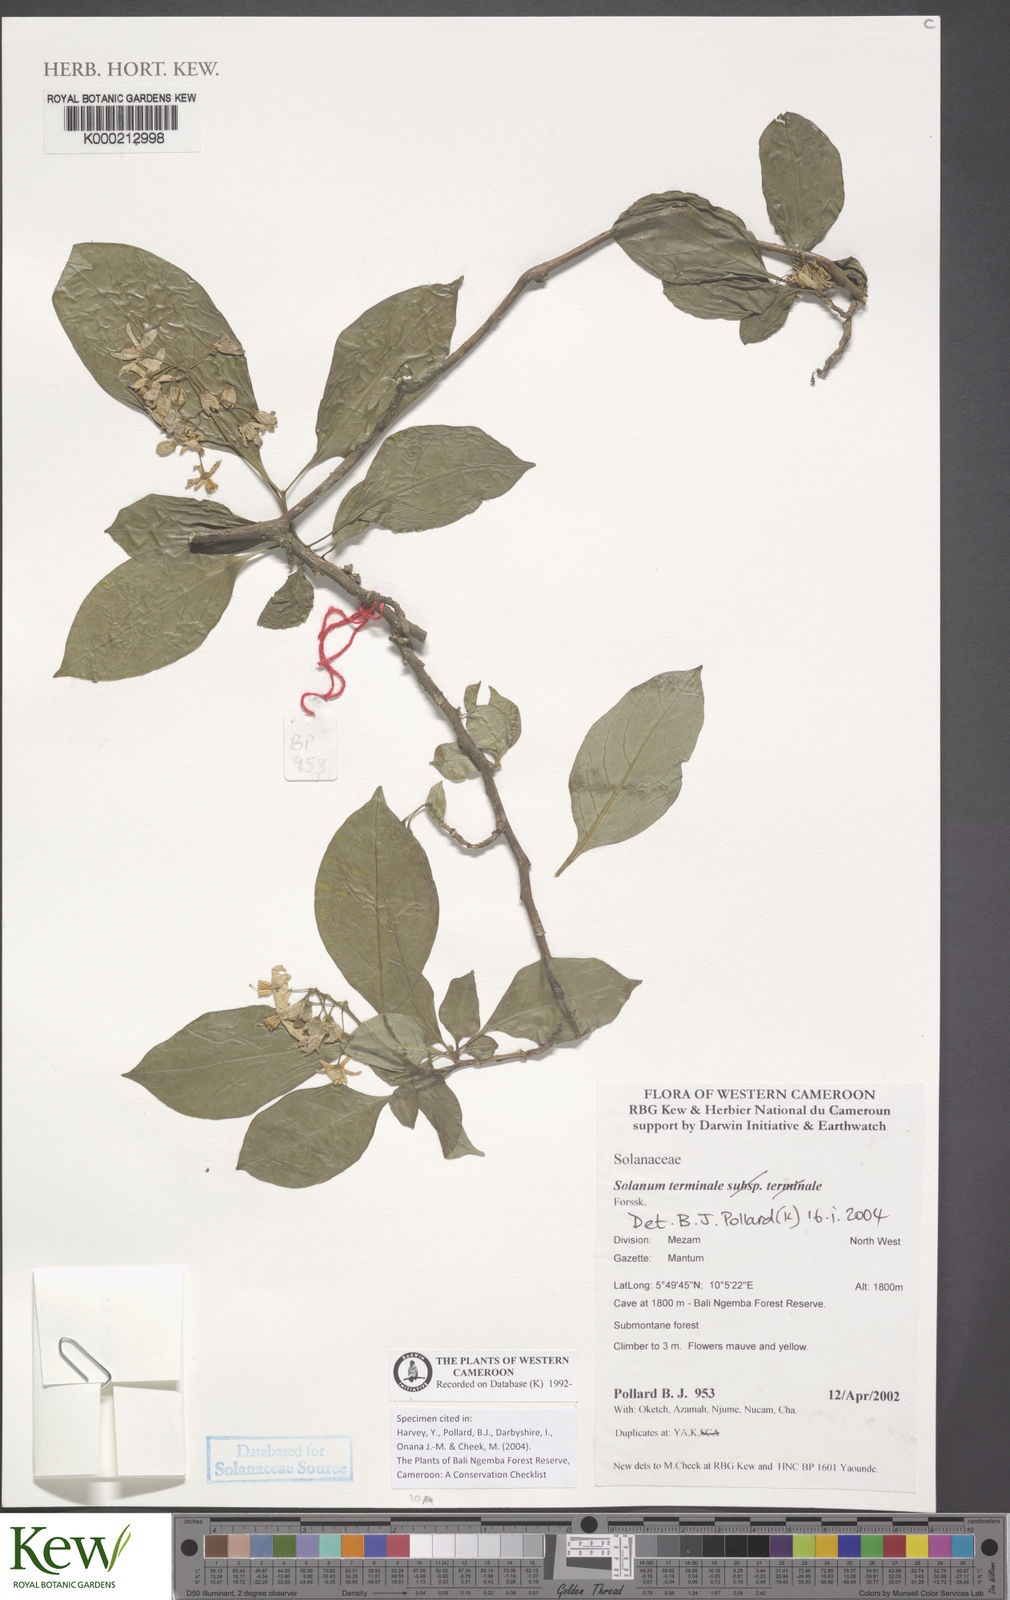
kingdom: Plantae
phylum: Tracheophyta
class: Magnoliopsida
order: Solanales
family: Solanaceae
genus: Solanum
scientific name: Solanum terminale
